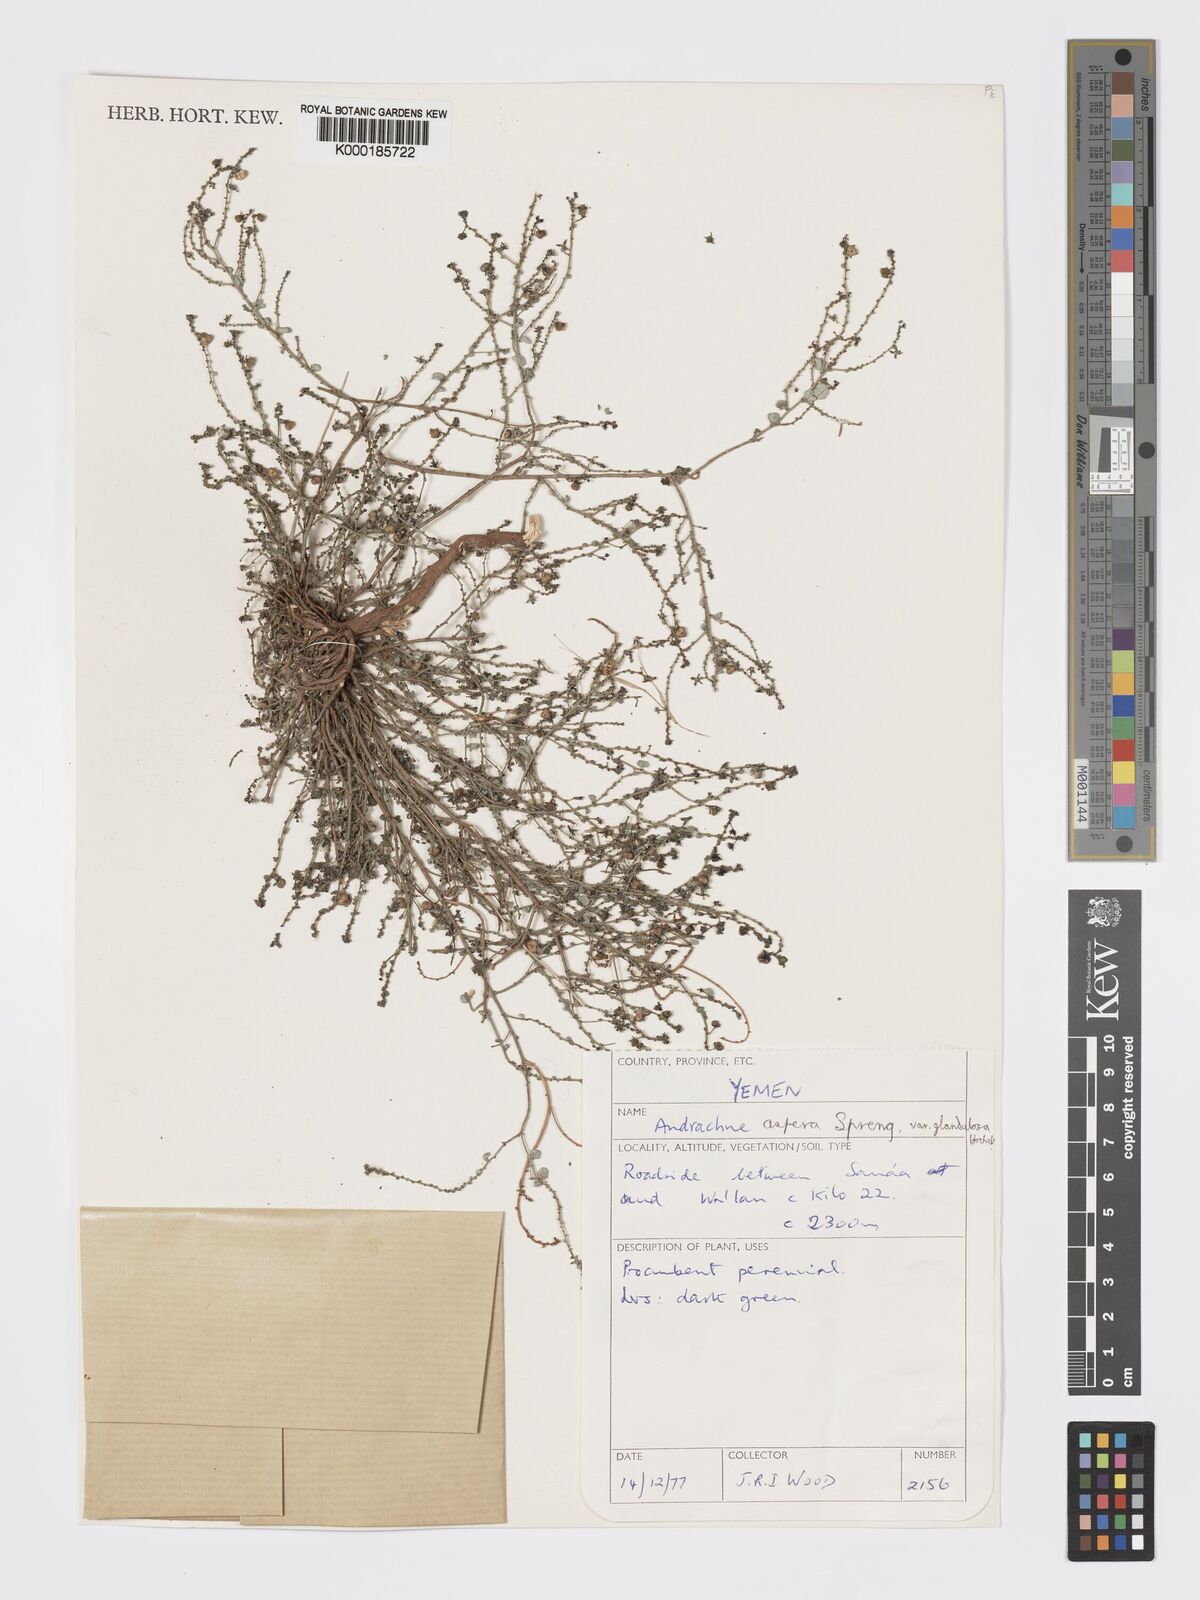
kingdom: Plantae
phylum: Tracheophyta
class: Magnoliopsida
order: Malpighiales
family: Phyllanthaceae
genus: Andrachne
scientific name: Andrachne aspera
